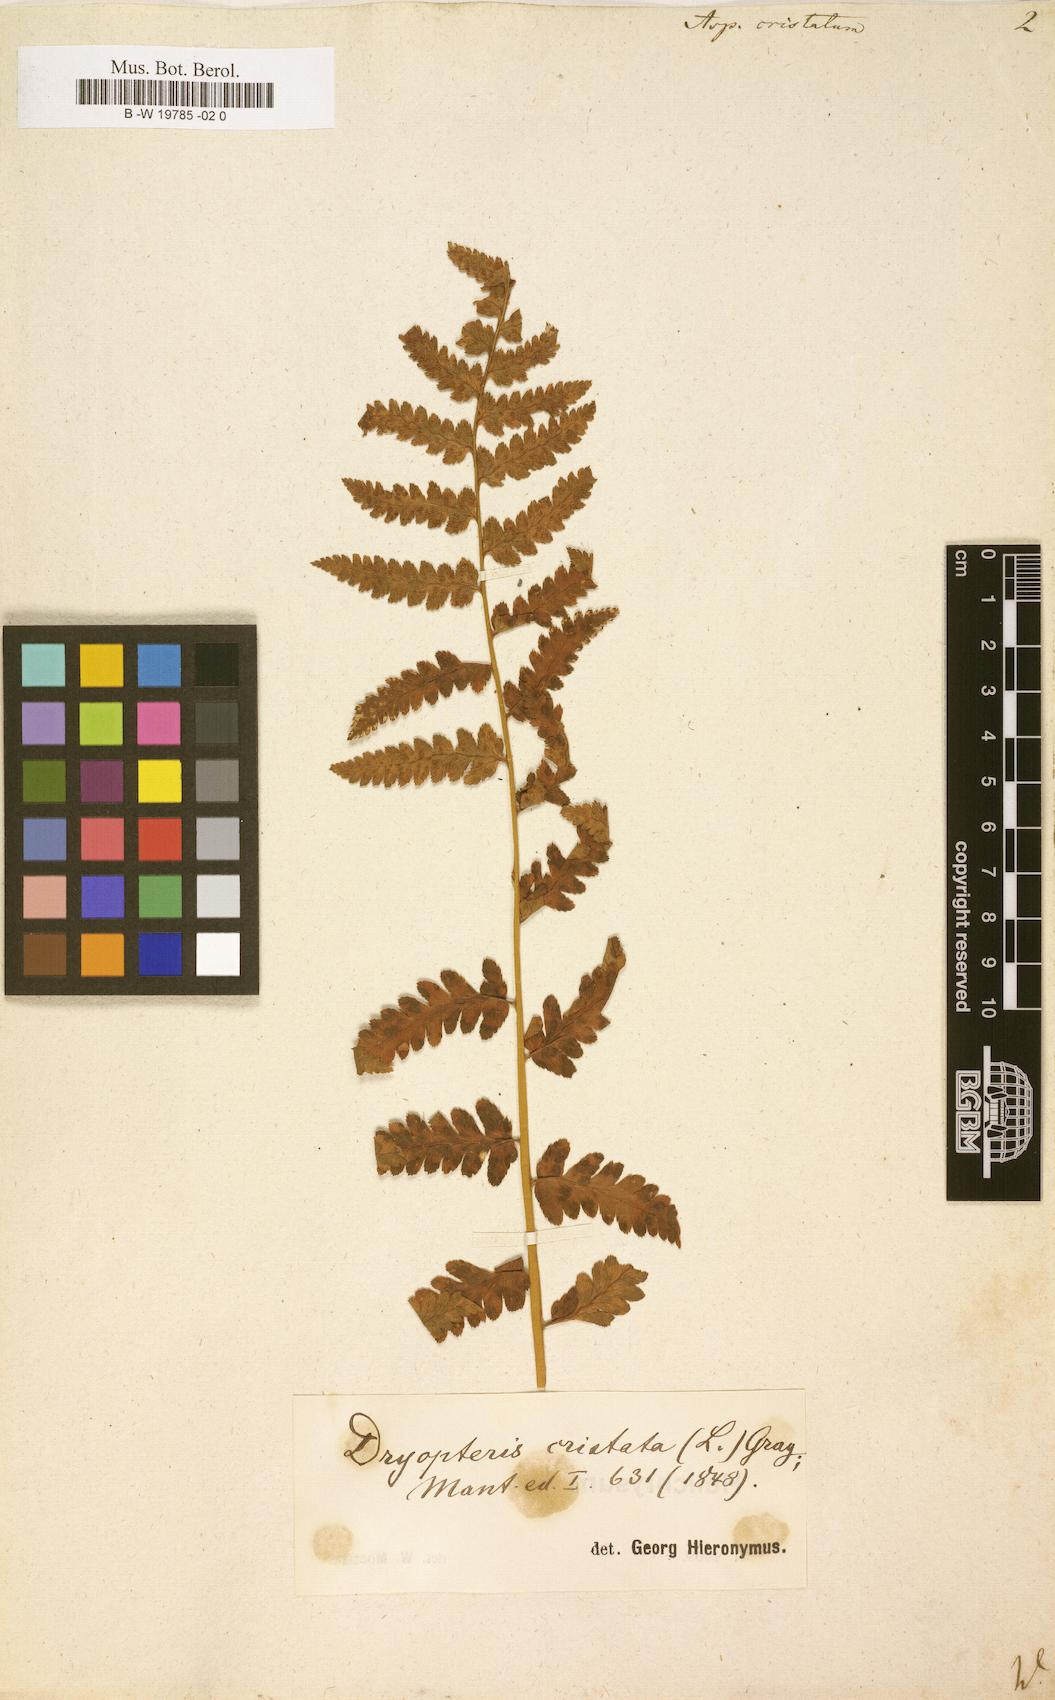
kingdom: Plantae
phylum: Tracheophyta
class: Polypodiopsida
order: Polypodiales
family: Dryopteridaceae
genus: Dryopteris
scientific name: Dryopteris cristata
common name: Crested wood fern
